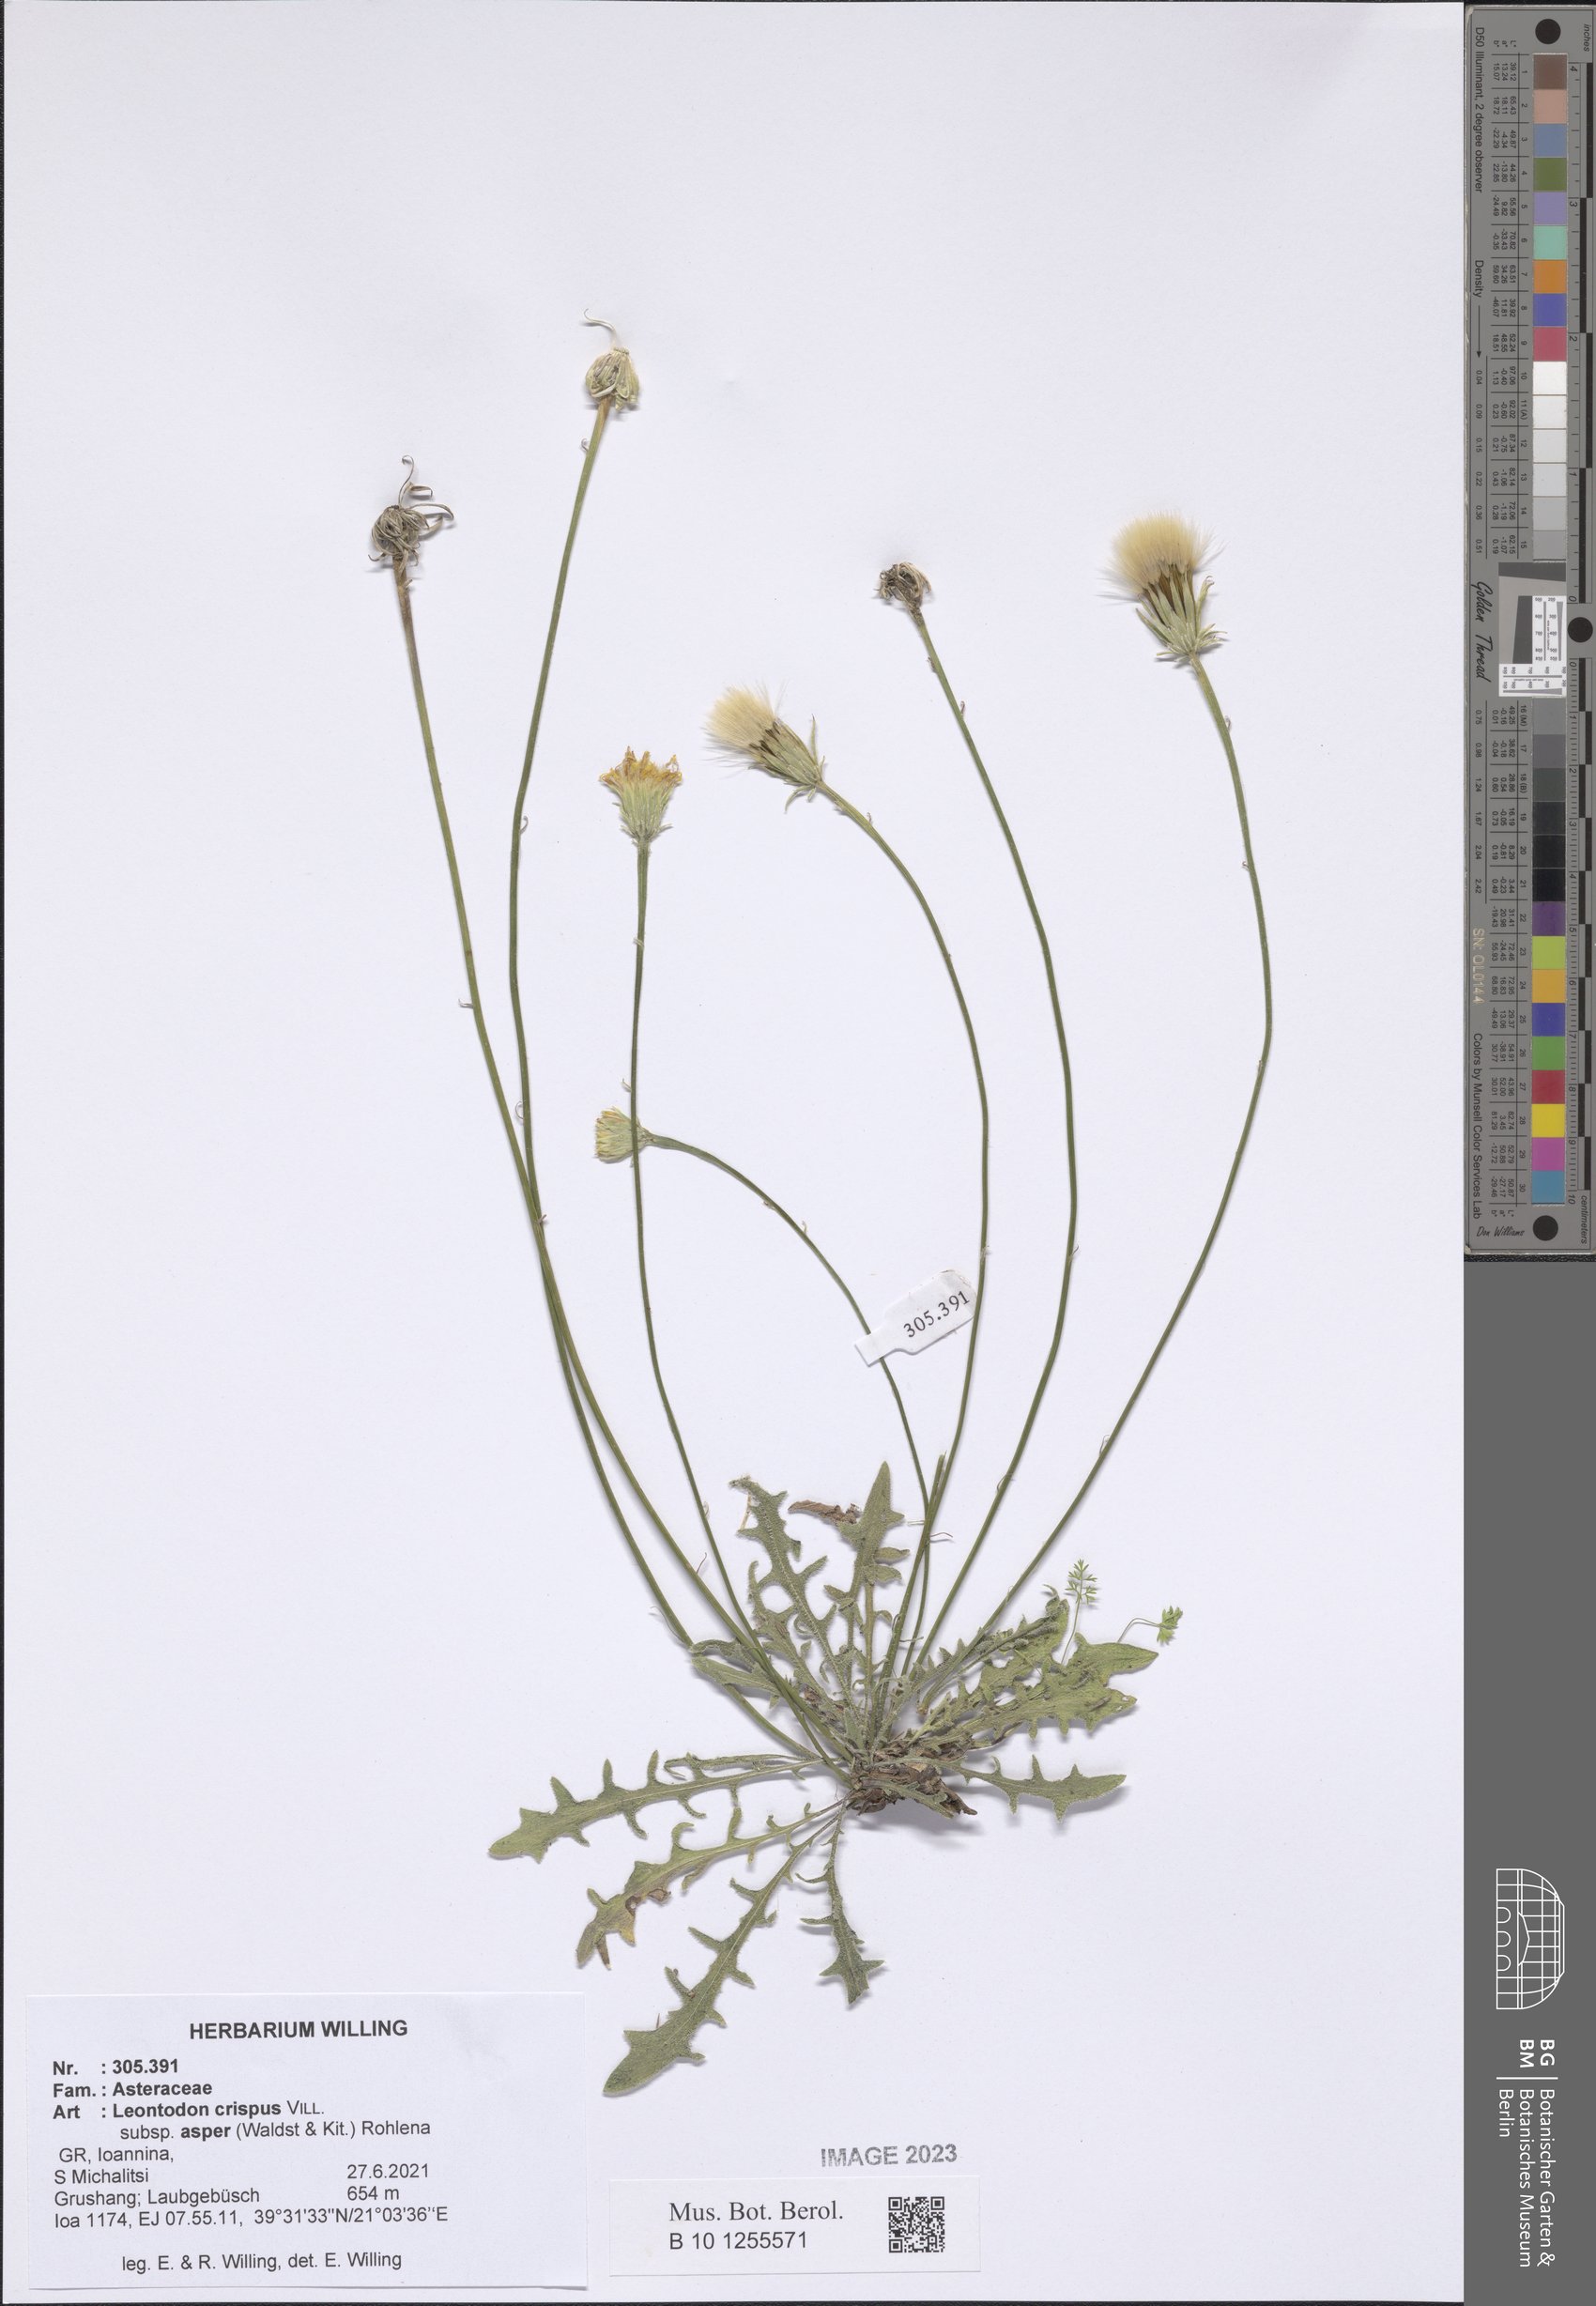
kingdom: Plantae
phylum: Tracheophyta
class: Magnoliopsida
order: Asterales
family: Asteraceae
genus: Leontodon
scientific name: Leontodon biscutellifolius
